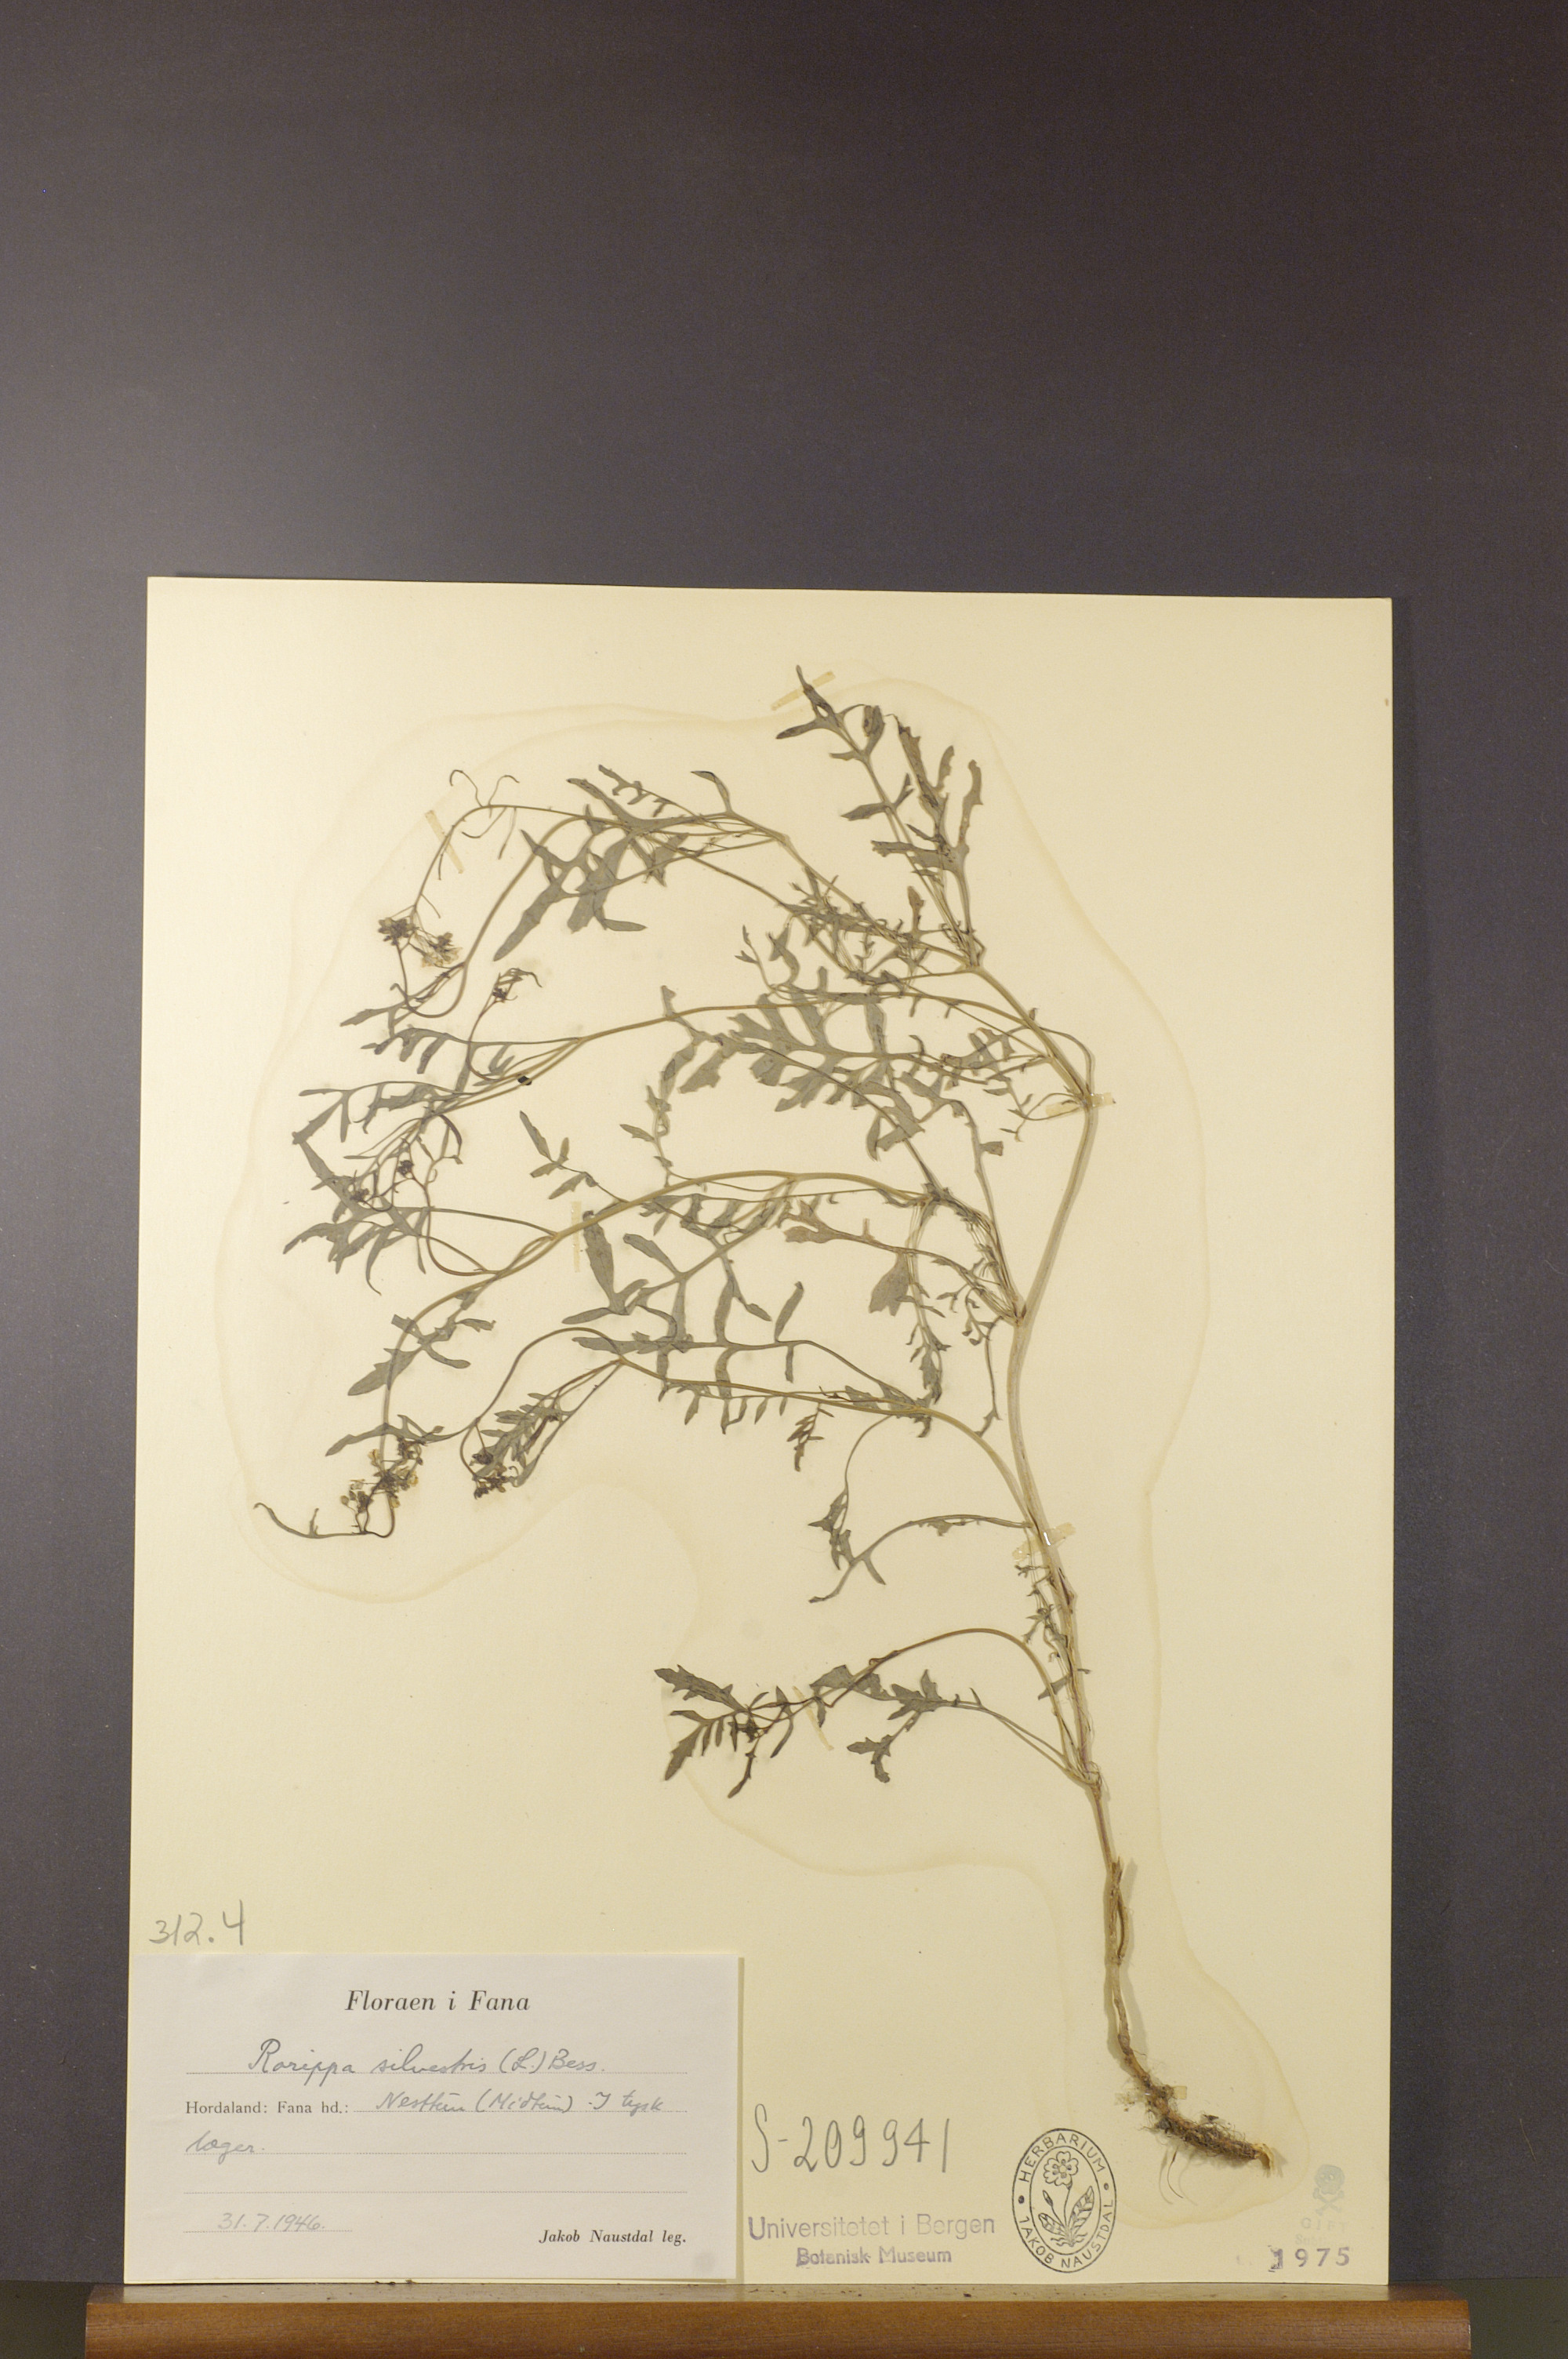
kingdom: Plantae
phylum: Tracheophyta
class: Magnoliopsida
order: Brassicales
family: Brassicaceae
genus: Rorippa
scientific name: Rorippa sylvestris
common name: Creeping yellowcress
